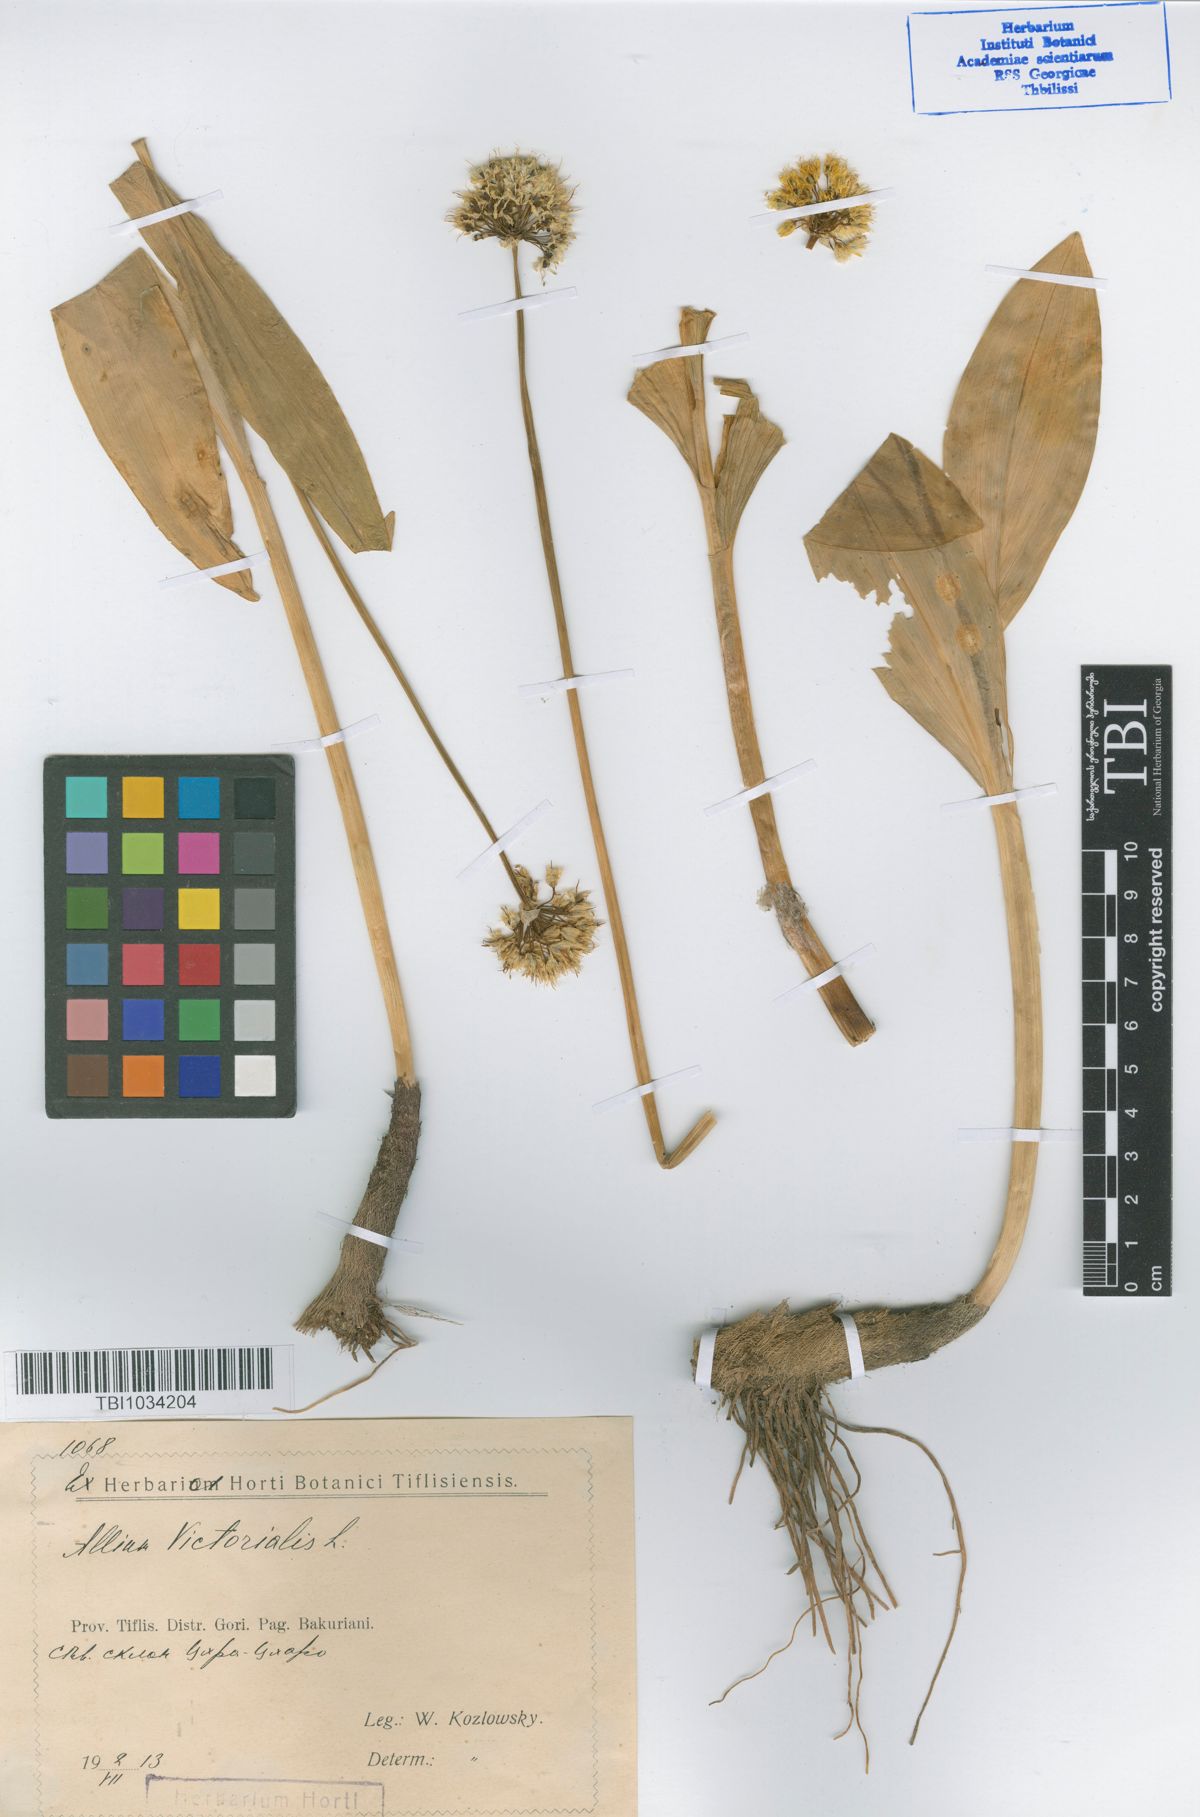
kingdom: Plantae
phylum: Tracheophyta
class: Magnoliopsida
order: Asterales
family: Campanulaceae
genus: Campanula
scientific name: Campanula dzyschrica
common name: Dzyshrian campanula
